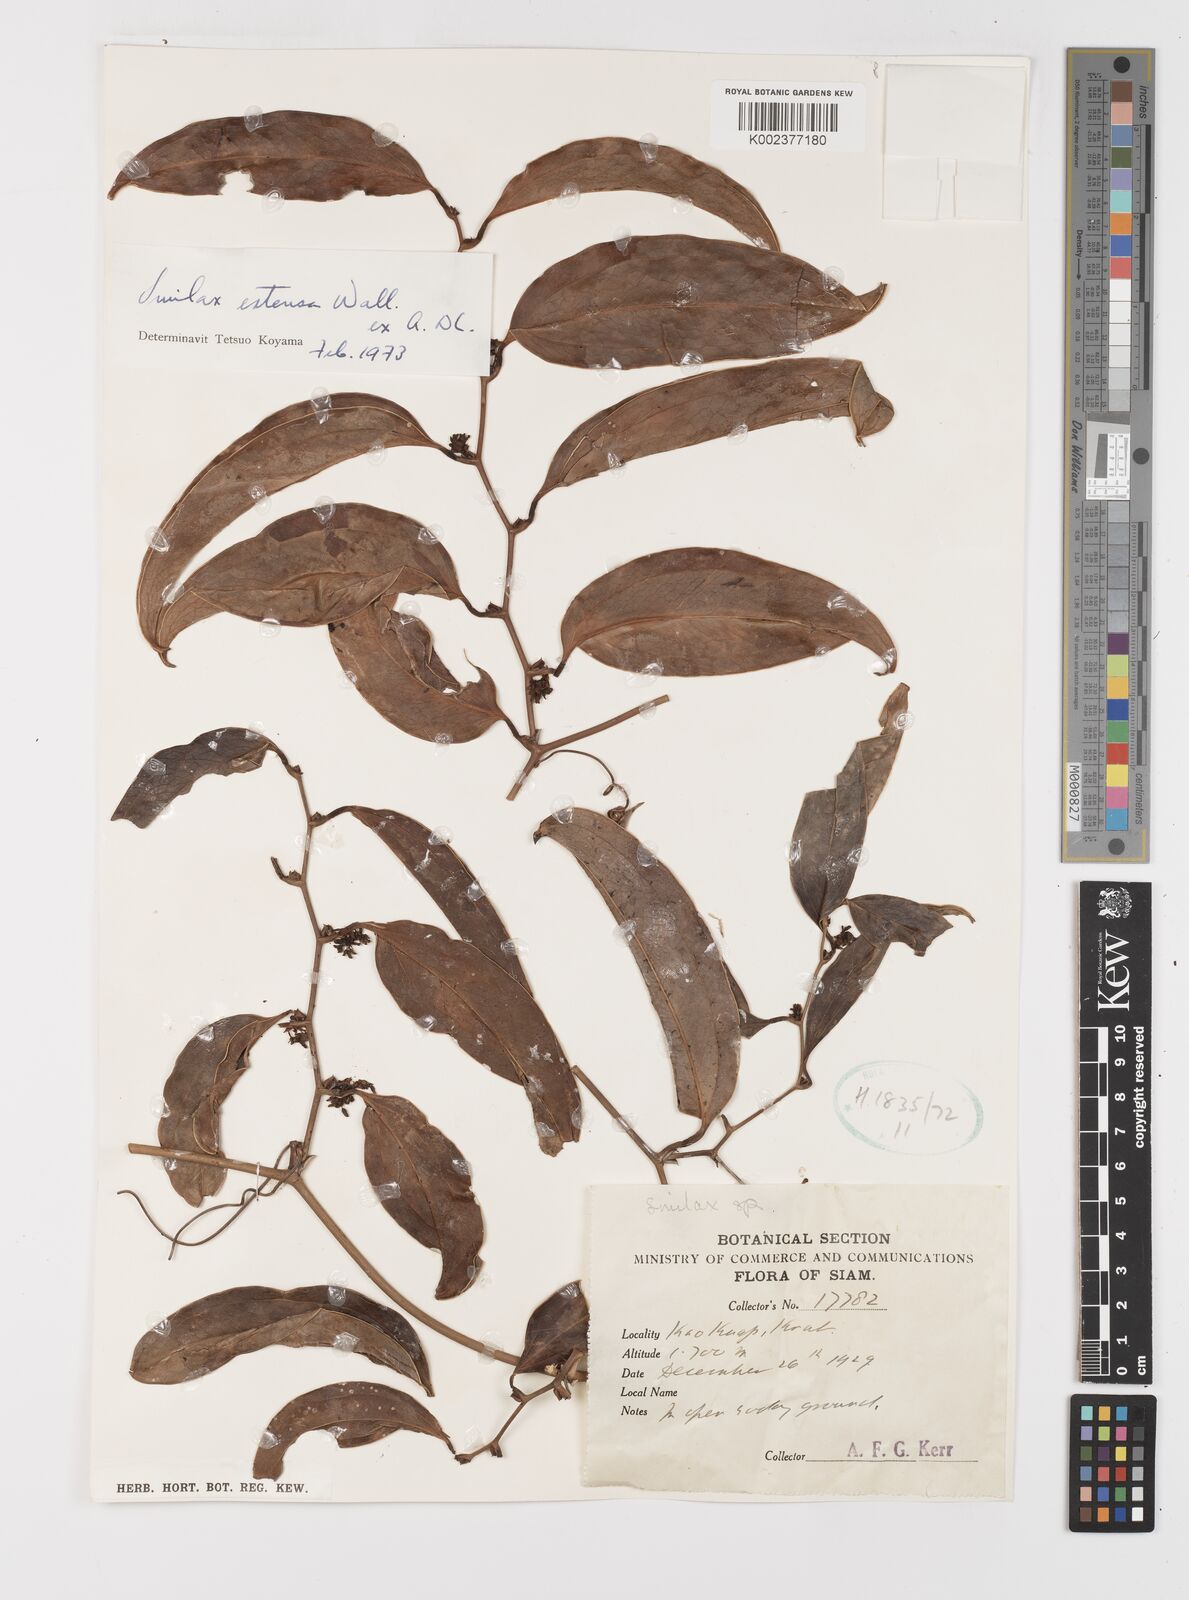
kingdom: Plantae
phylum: Tracheophyta
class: Liliopsida
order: Liliales
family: Smilacaceae
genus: Smilax
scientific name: Smilax extensa
